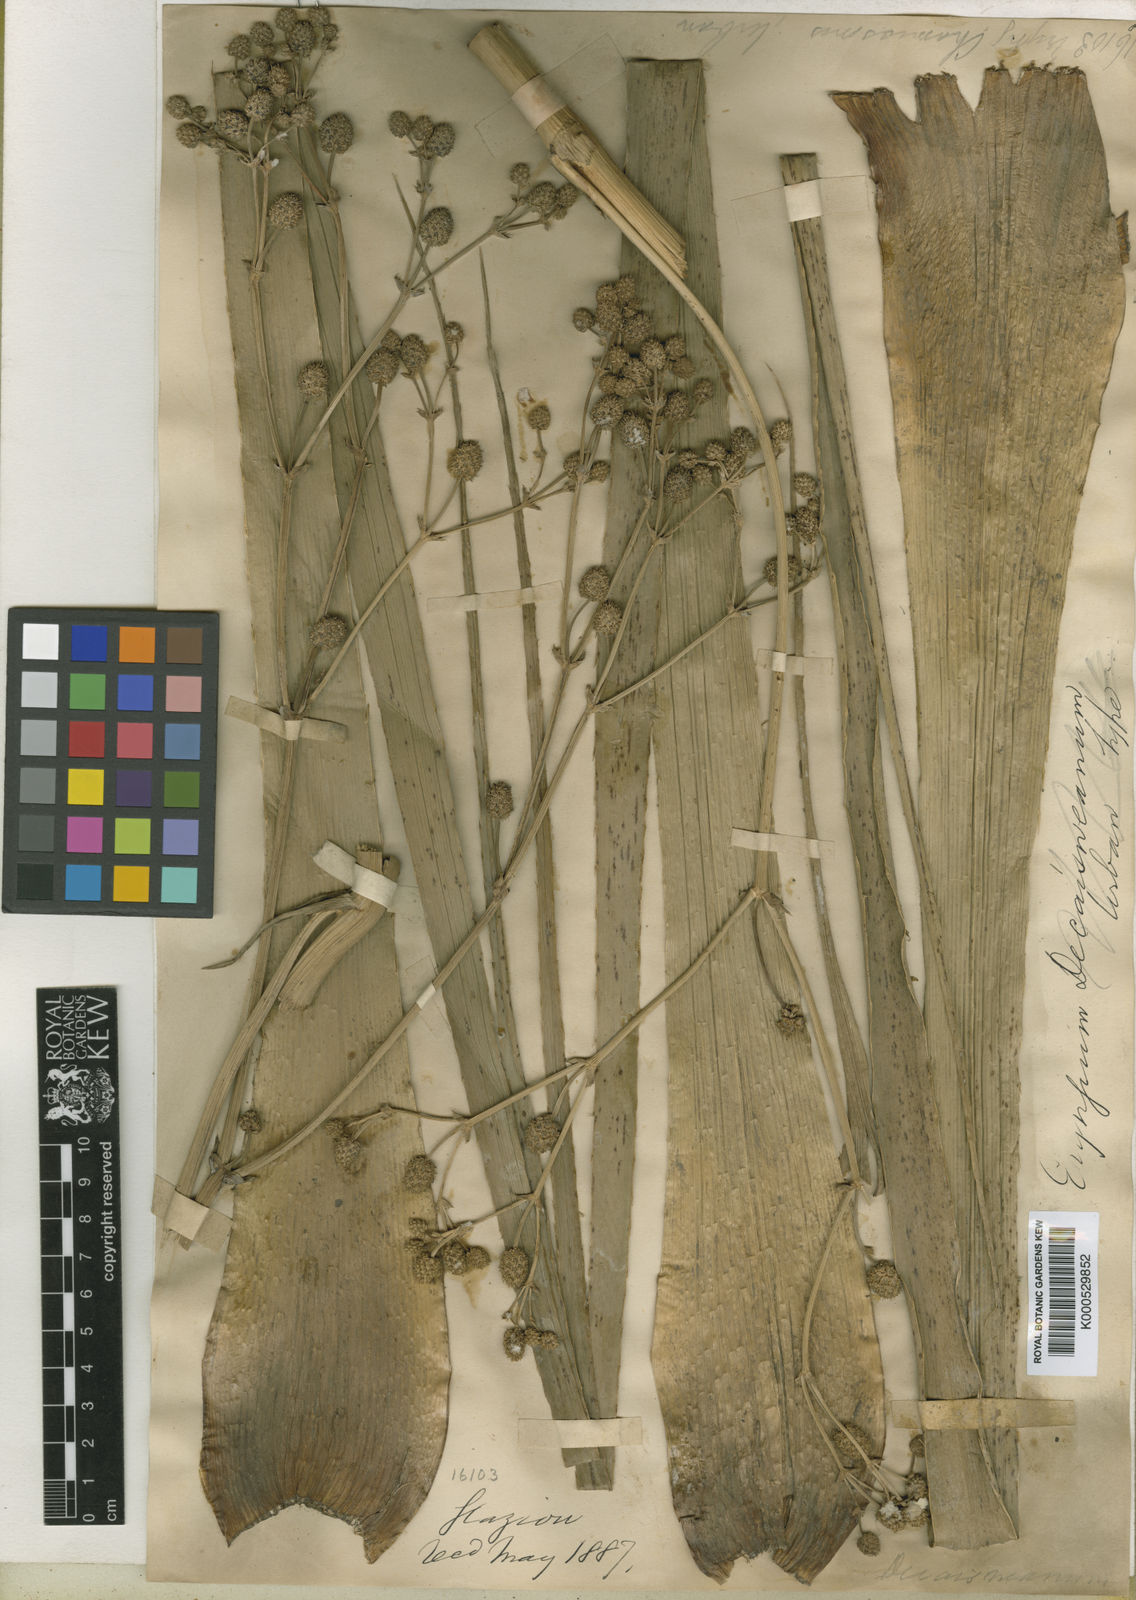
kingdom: Plantae
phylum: Tracheophyta
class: Magnoliopsida
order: Apiales
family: Apiaceae
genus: Eryngium
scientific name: Eryngium pandanifolium
